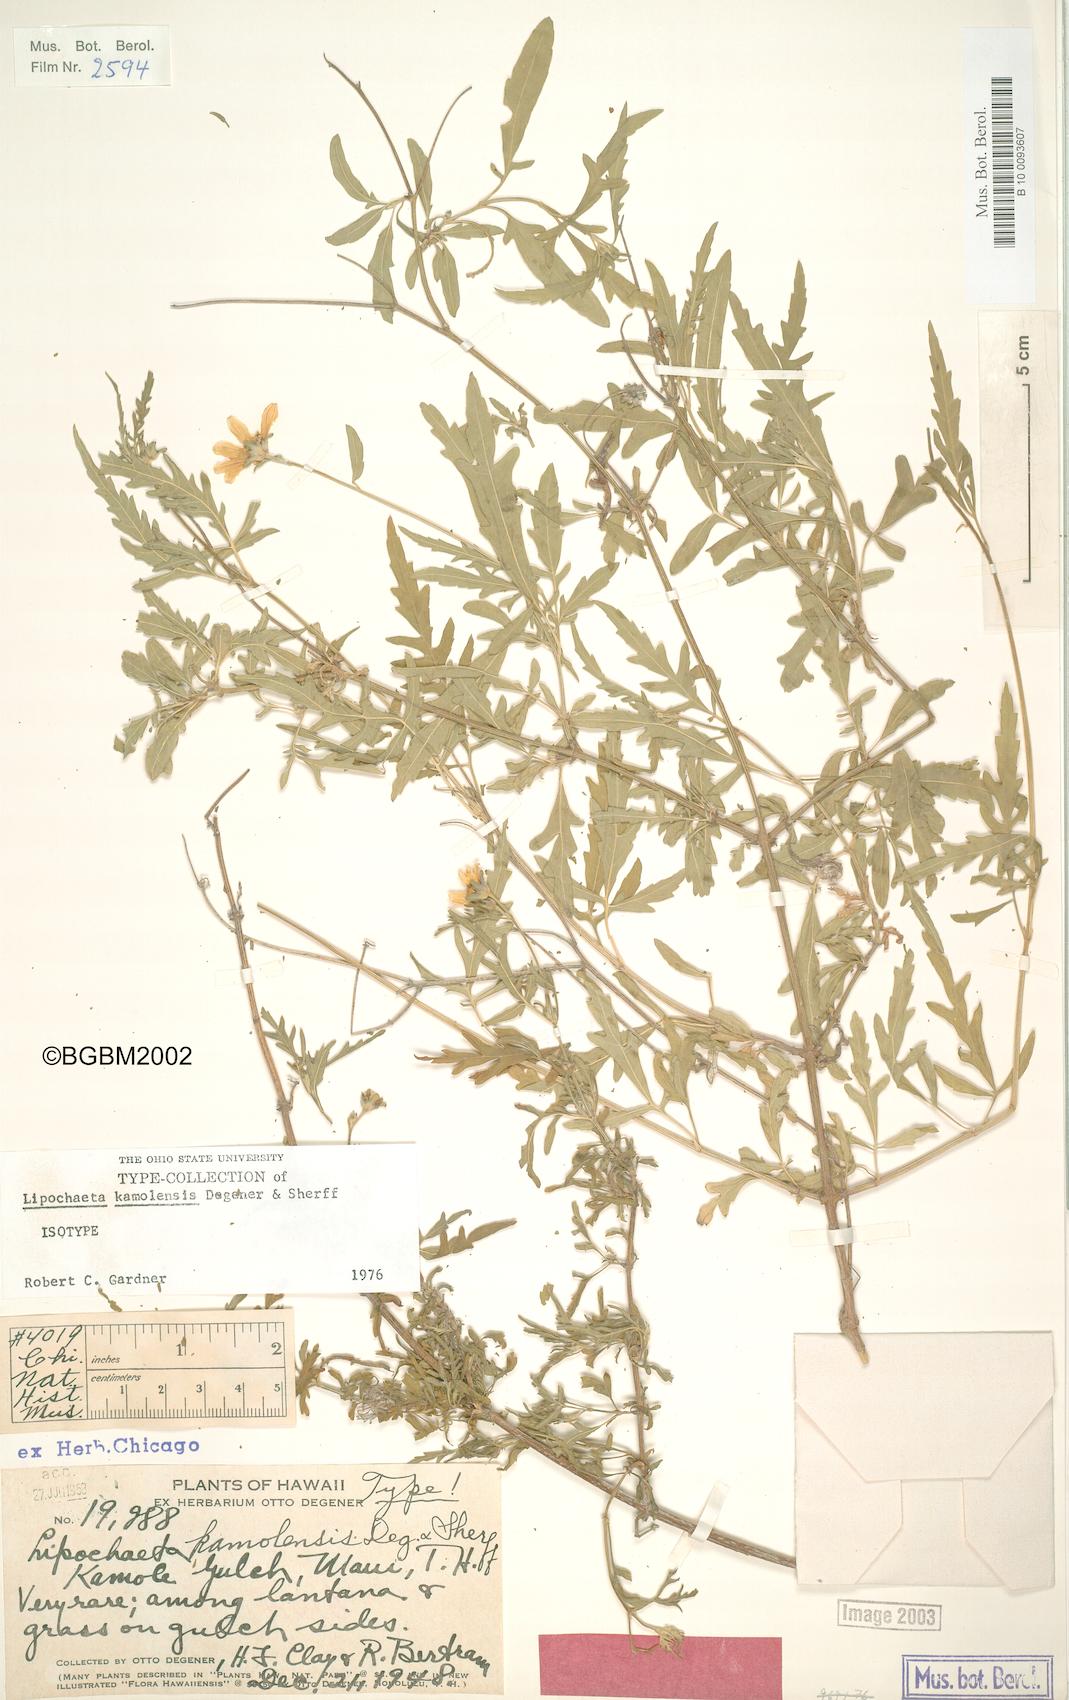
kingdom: Plantae
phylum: Tracheophyta
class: Magnoliopsida
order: Asterales
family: Asteraceae
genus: Lipochaeta
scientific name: Lipochaeta kamolensis
